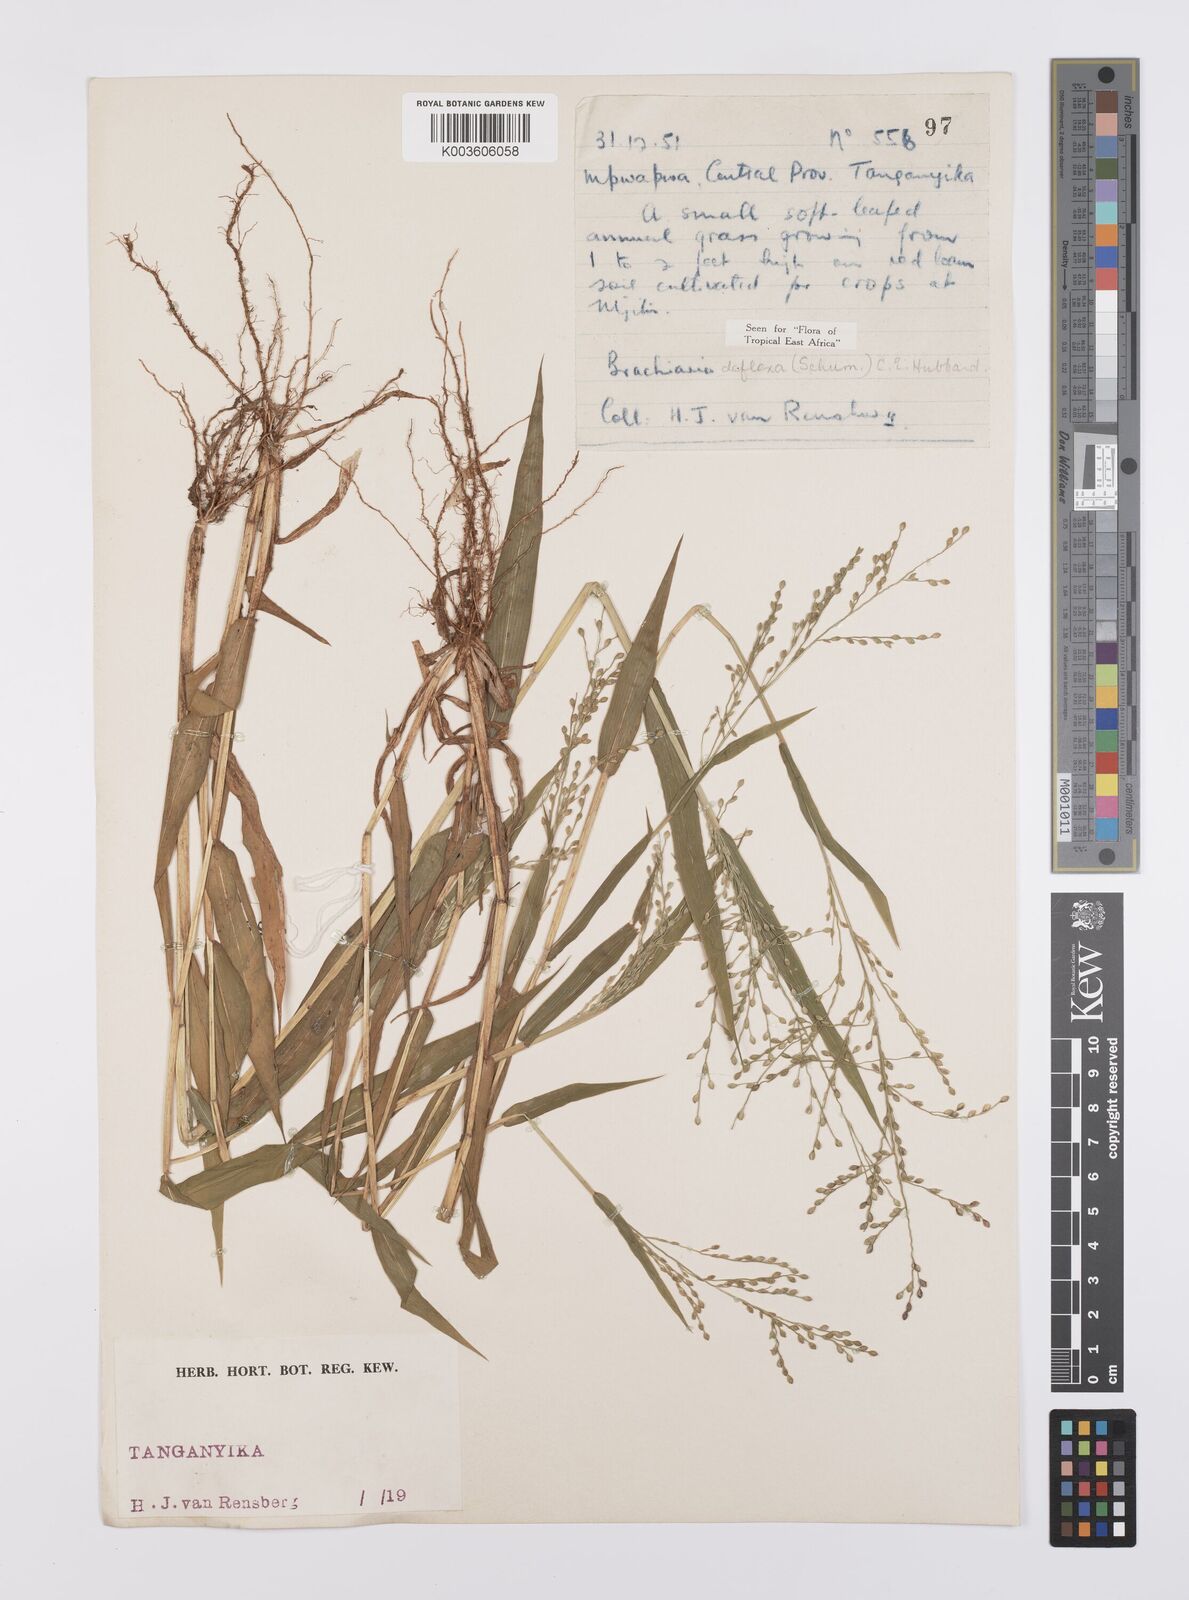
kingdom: Plantae
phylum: Tracheophyta
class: Liliopsida
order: Poales
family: Poaceae
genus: Urochloa
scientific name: Urochloa deflexa
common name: Guinea millet
